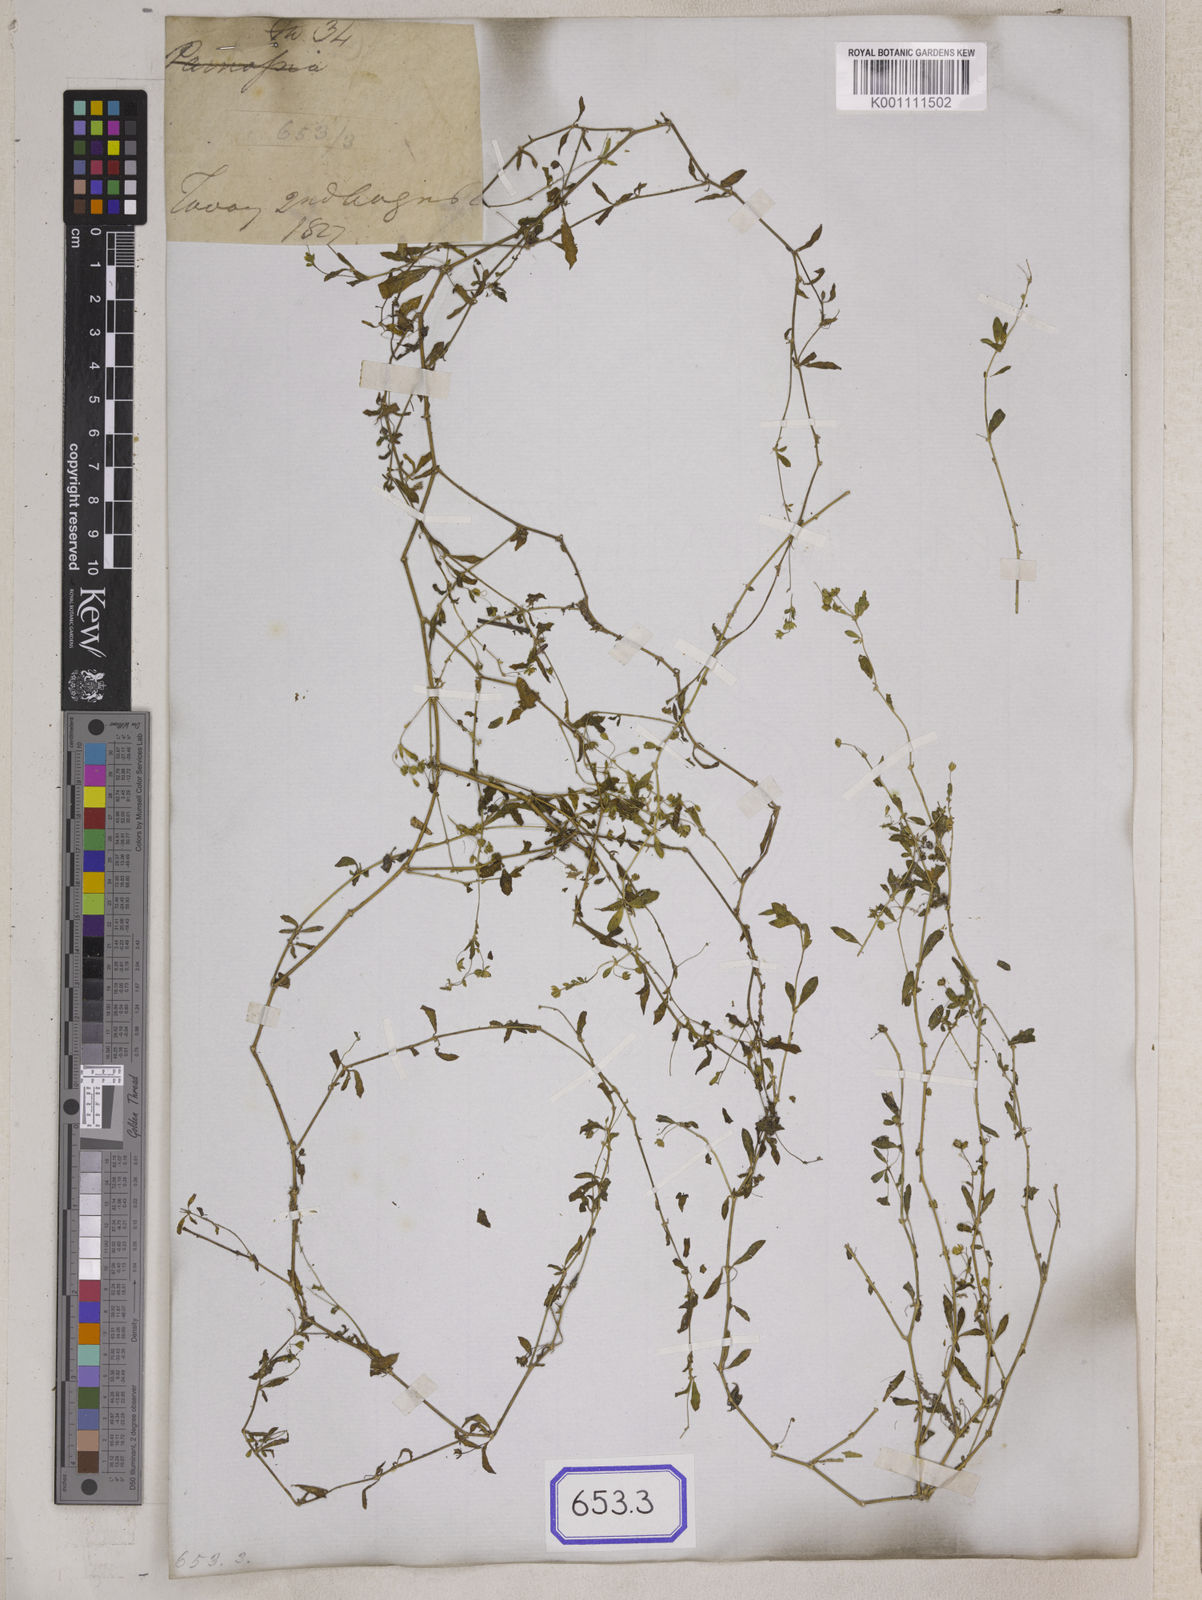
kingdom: Plantae
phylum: Tracheophyta
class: Magnoliopsida
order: Caryophyllales
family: Molluginaceae
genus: Glinus
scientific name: Glinus oppositifolius
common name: Slender carpetweed
